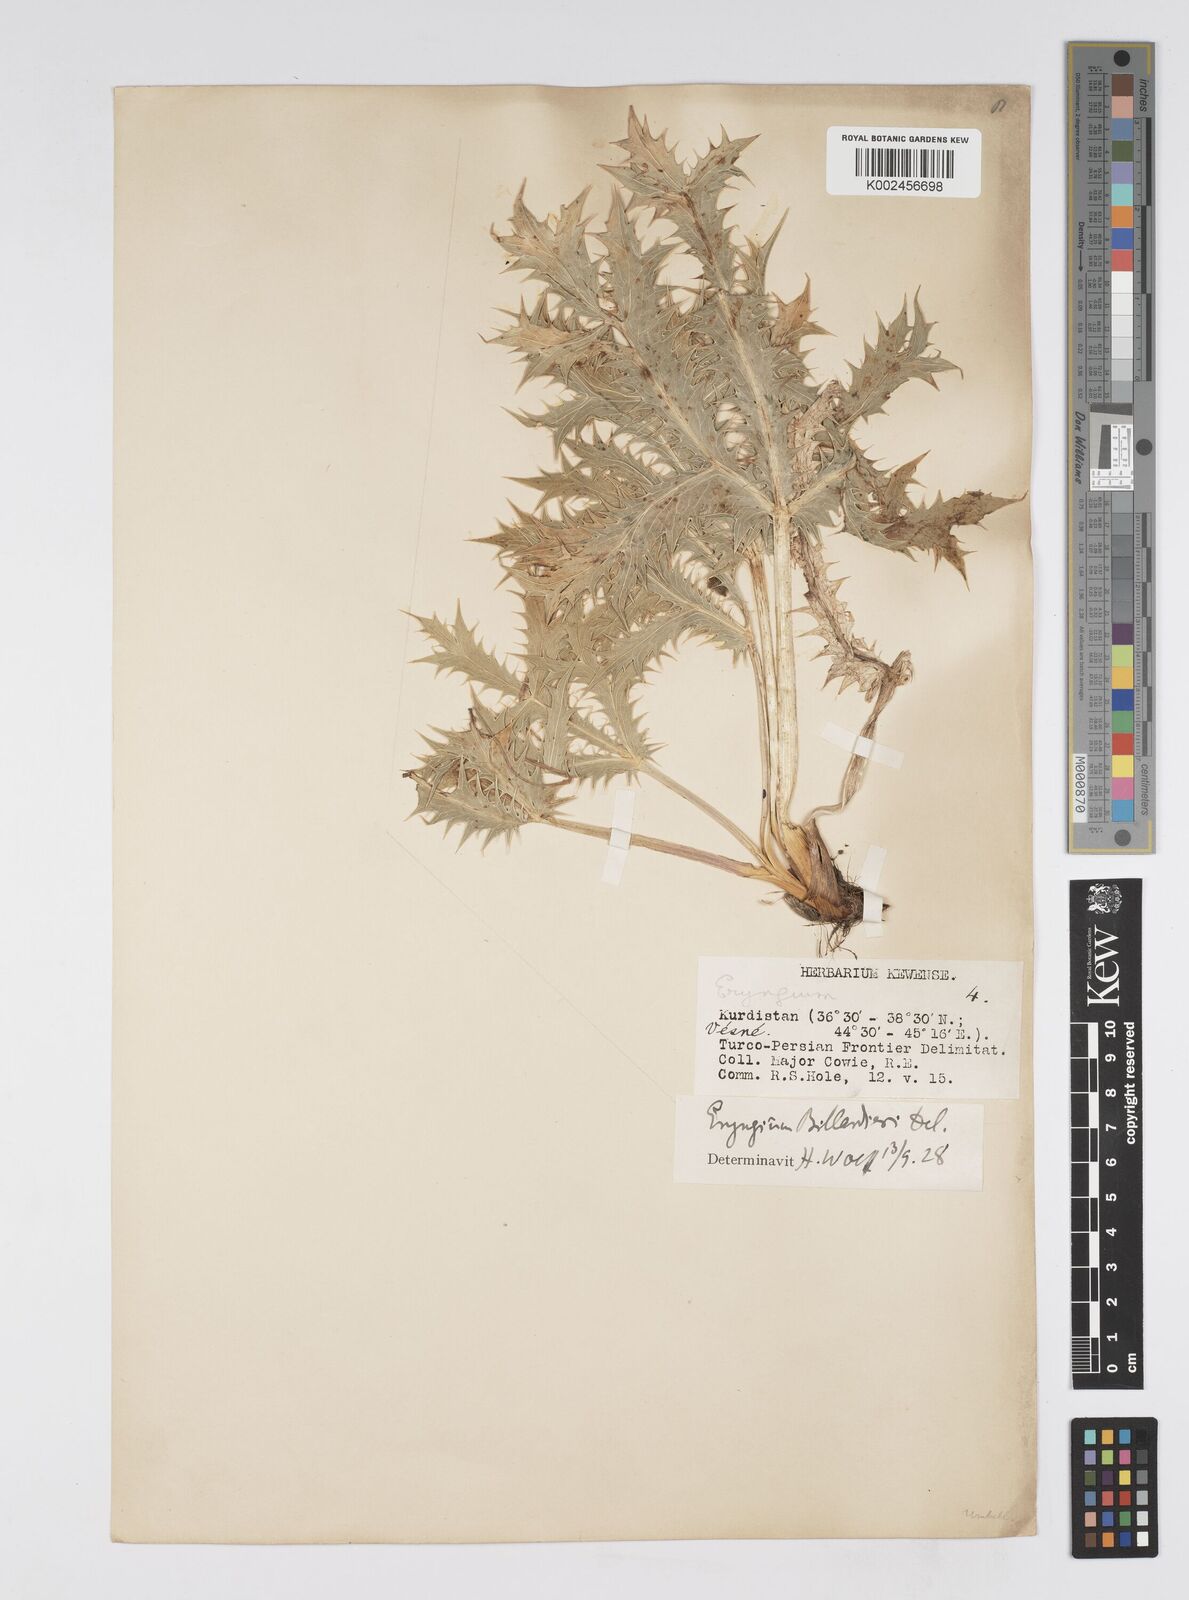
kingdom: Plantae
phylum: Tracheophyta
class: Magnoliopsida
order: Apiales
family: Apiaceae
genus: Eryngium
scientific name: Eryngium billardierei
